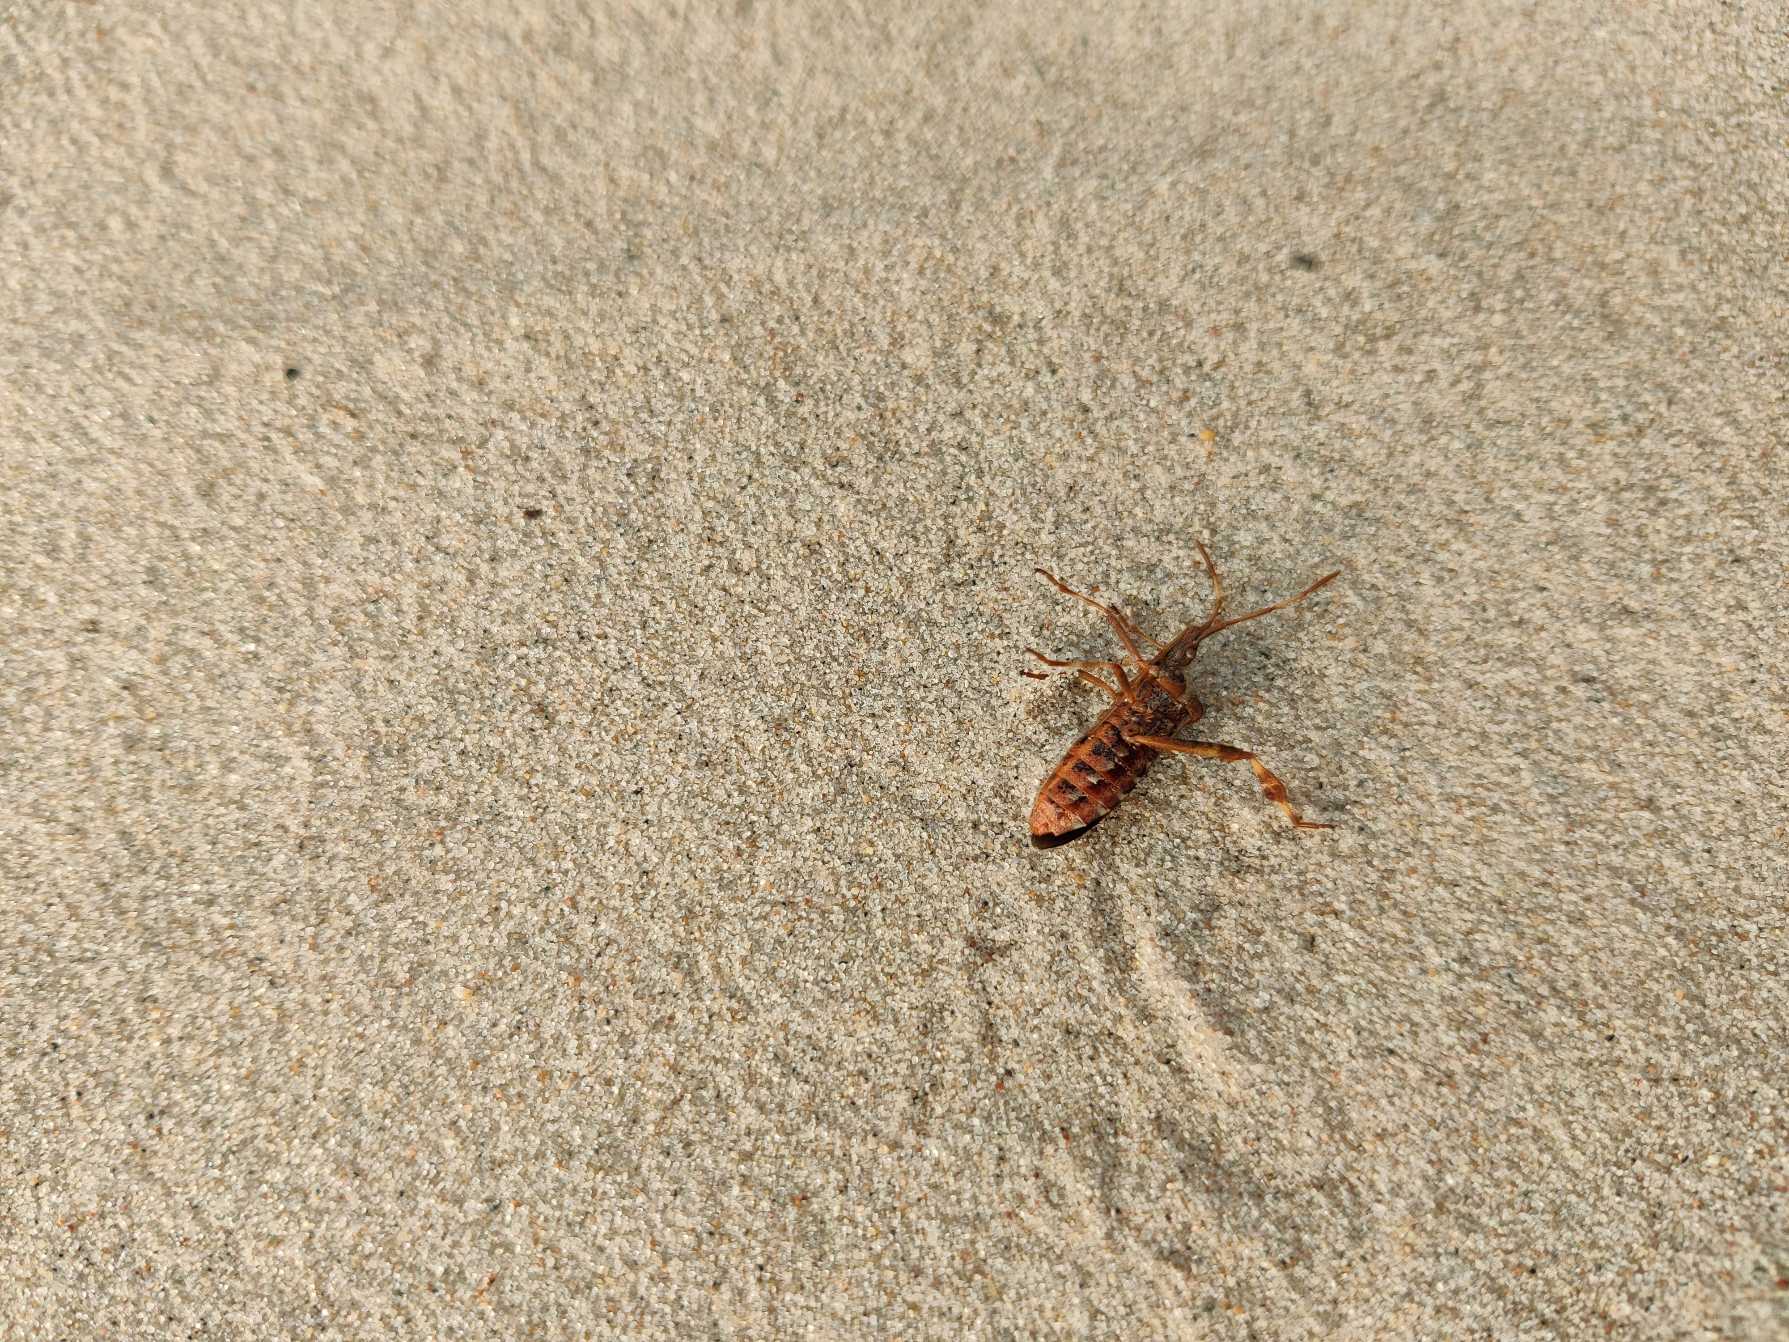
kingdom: Animalia
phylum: Arthropoda
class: Insecta
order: Hemiptera
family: Coreidae
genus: Leptoglossus
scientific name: Leptoglossus occidentalis
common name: Amerikansk fyrretæge
